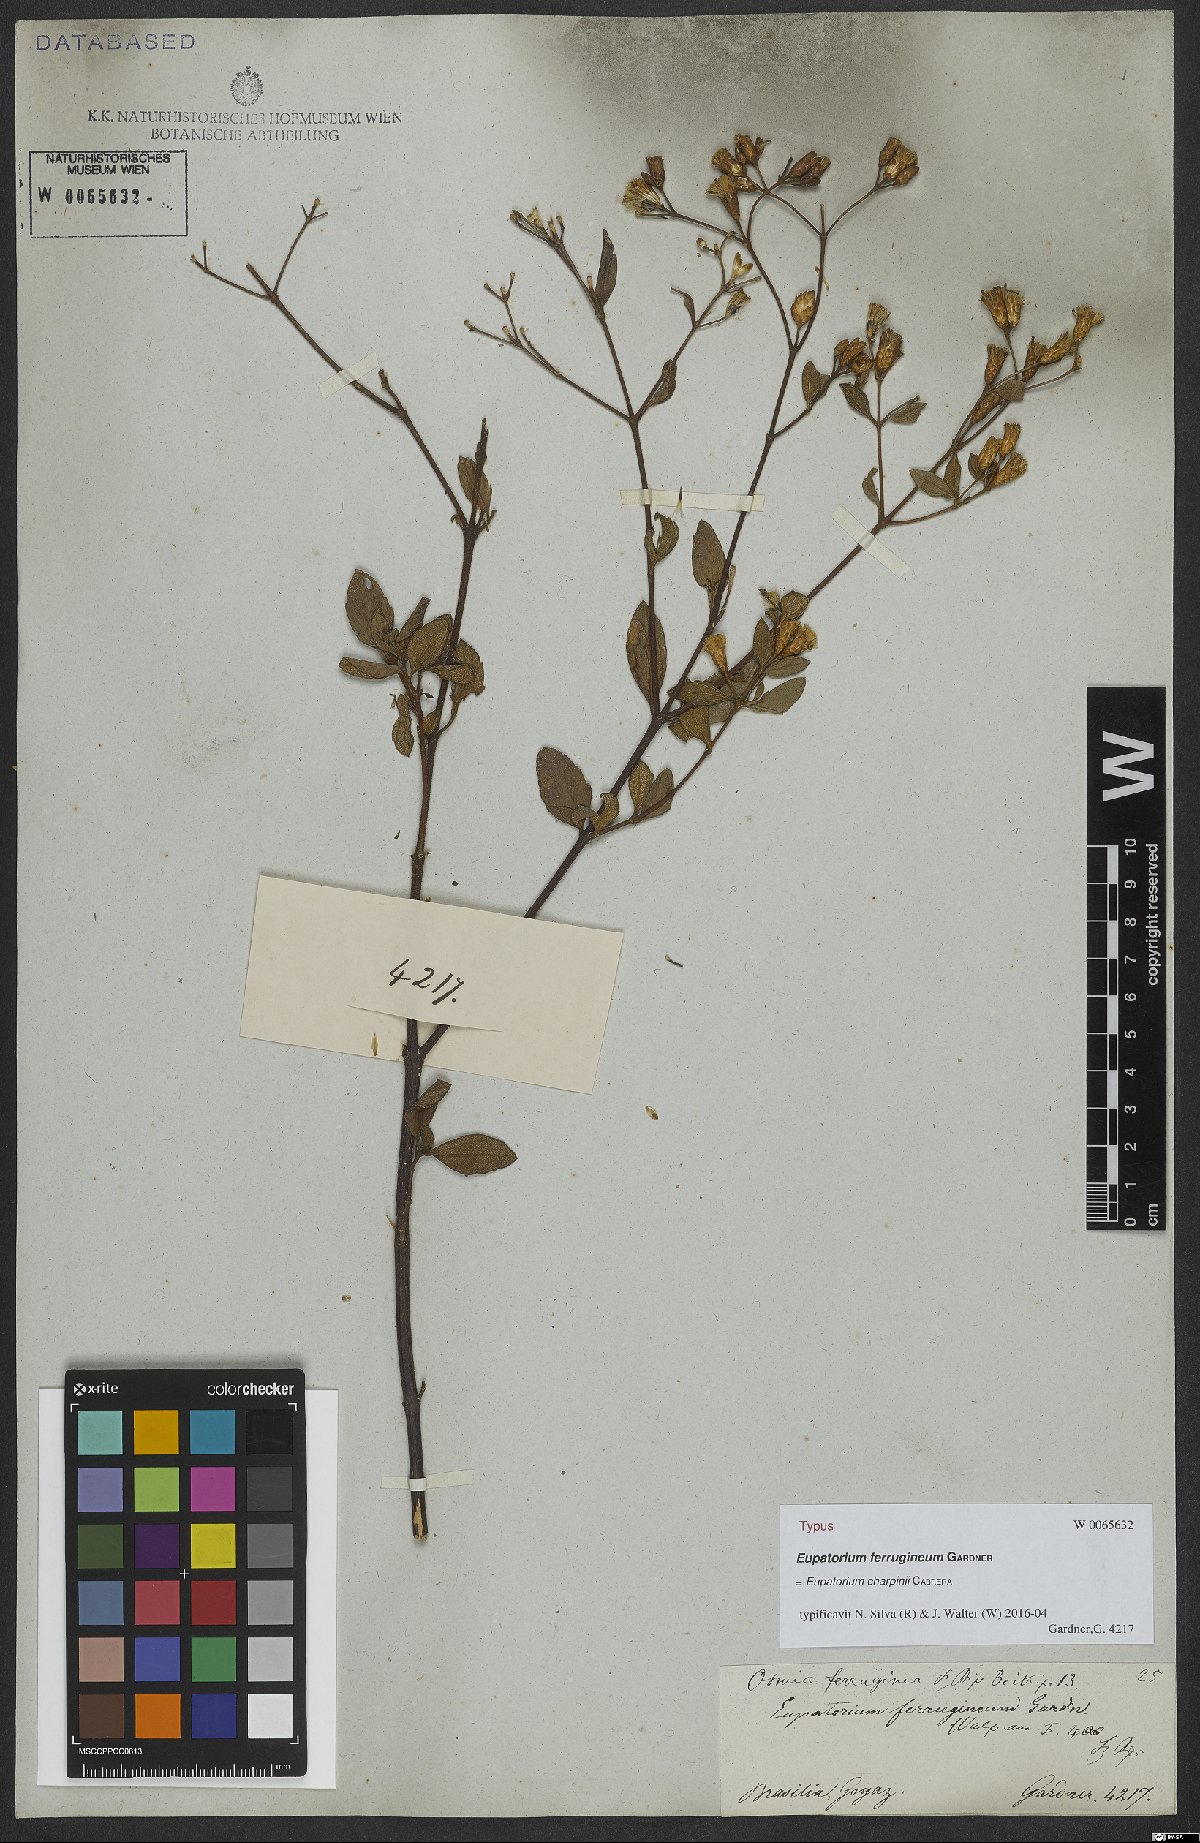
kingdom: Plantae
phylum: Tracheophyta
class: Magnoliopsida
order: Asterales
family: Asteraceae
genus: Chromolaena
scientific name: Chromolaena ferruginea
